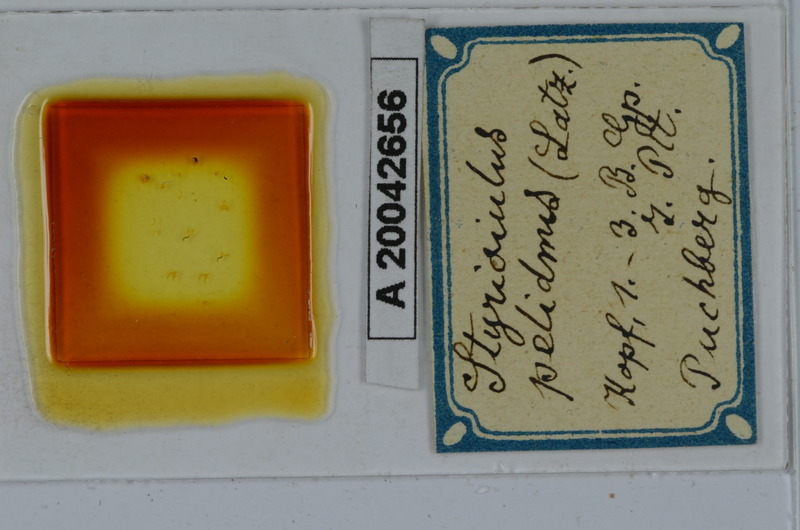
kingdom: Animalia
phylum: Arthropoda
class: Diplopoda
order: Julida
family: Julidae
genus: Styrioiulus
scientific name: Styrioiulus pelidnus
